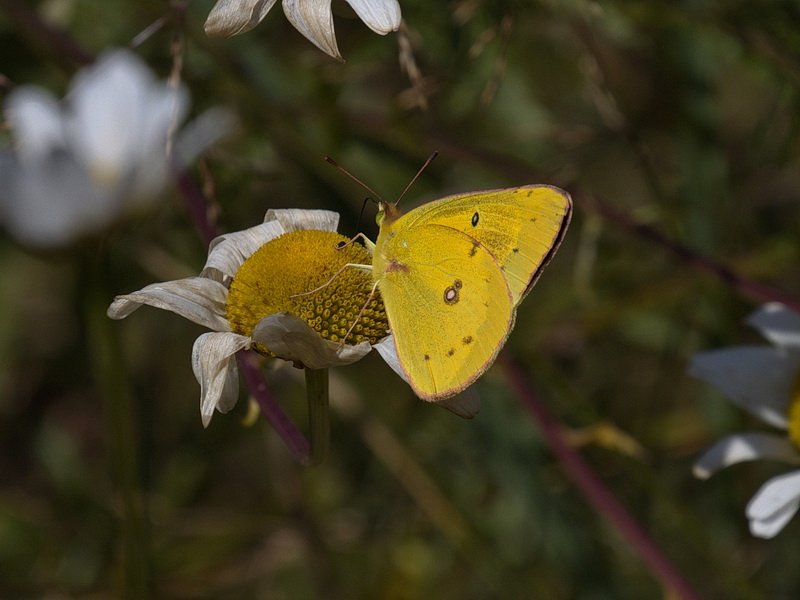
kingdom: Animalia
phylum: Arthropoda
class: Insecta
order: Lepidoptera
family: Pieridae
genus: Colias
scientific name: Colias eurytheme
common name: Orange Sulphur
